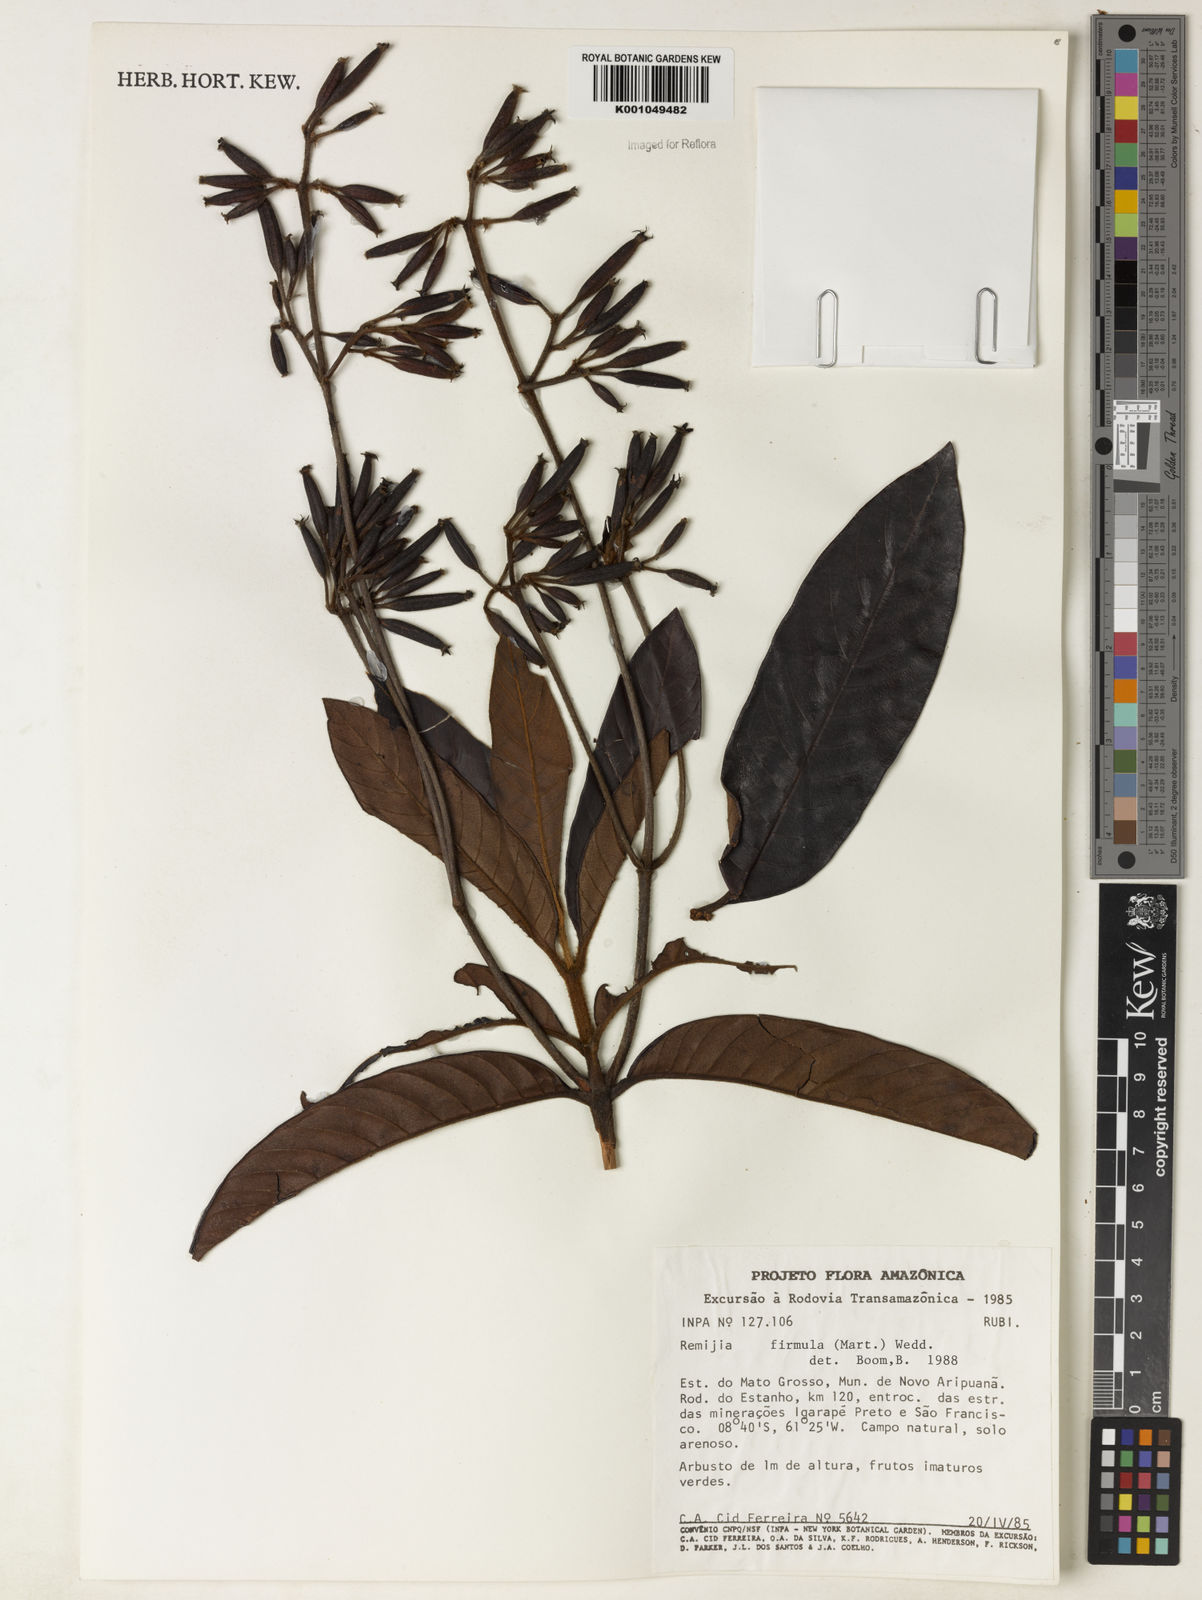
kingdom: Plantae
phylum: Tracheophyta
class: Magnoliopsida
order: Gentianales
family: Rubiaceae
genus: Remijia
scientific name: Remijia firmula
